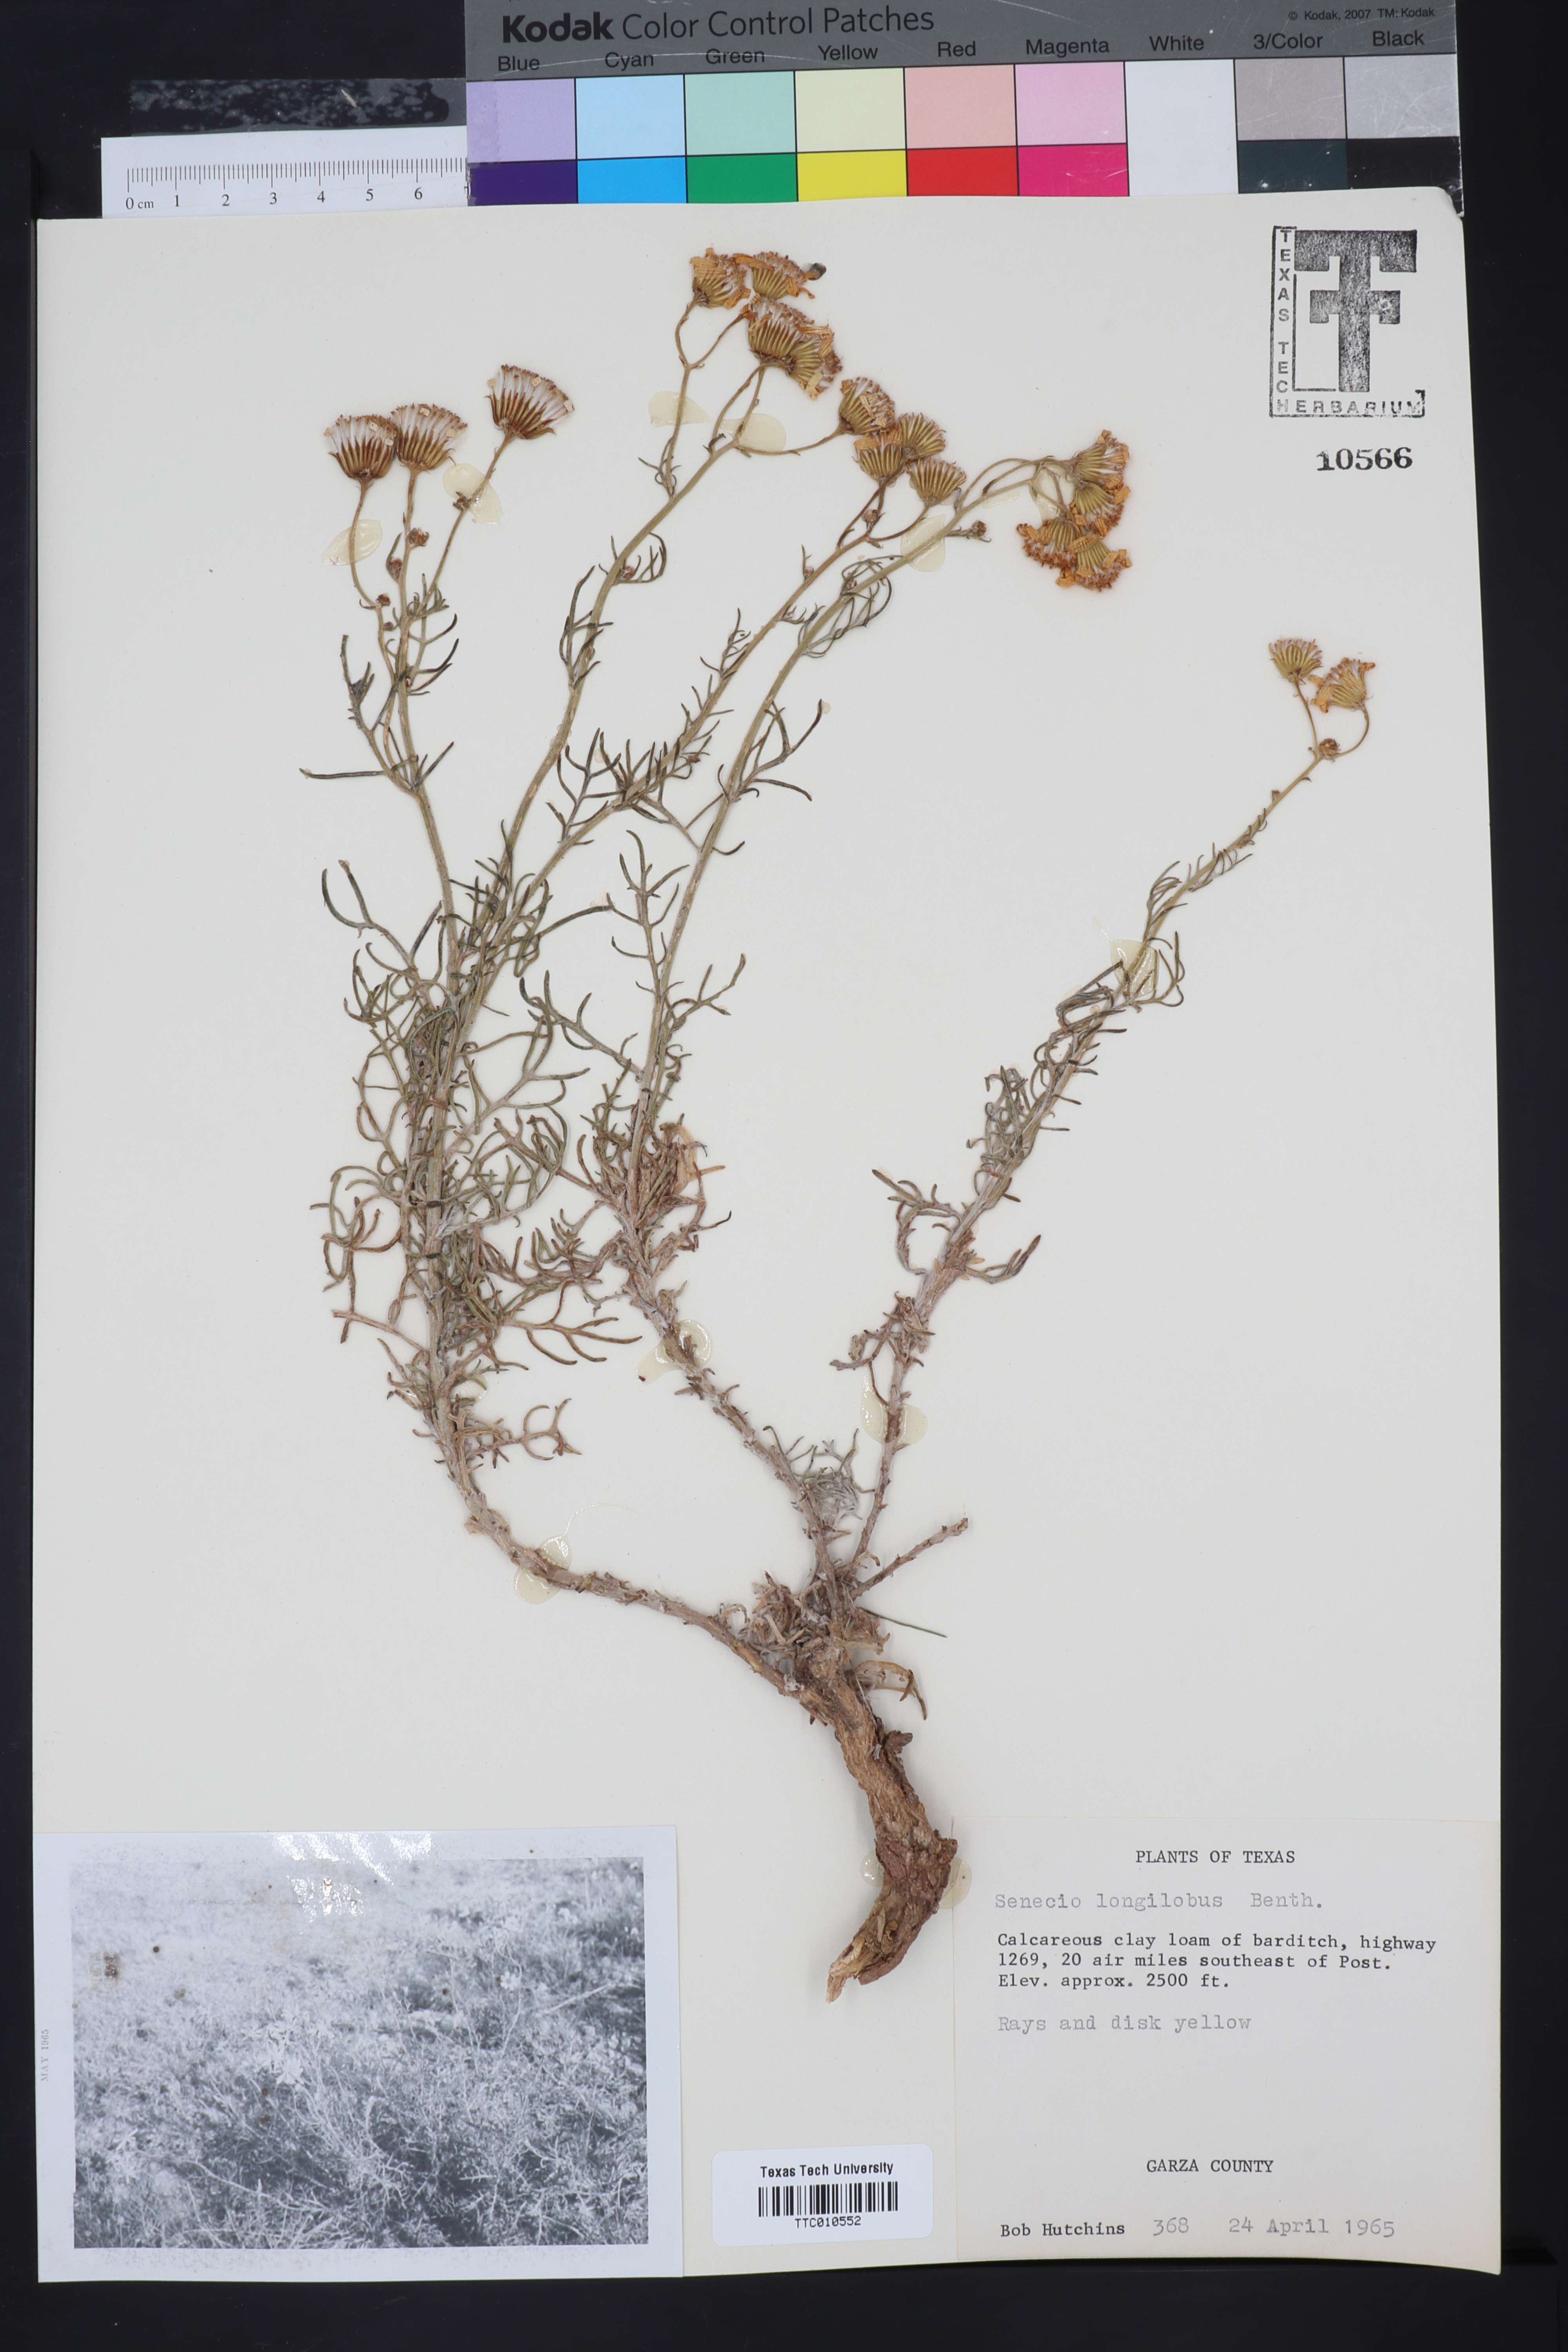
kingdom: Plantae
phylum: Tracheophyta
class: Magnoliopsida
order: Asterales
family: Asteraceae
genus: Senecio
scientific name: Senecio flaccidus
